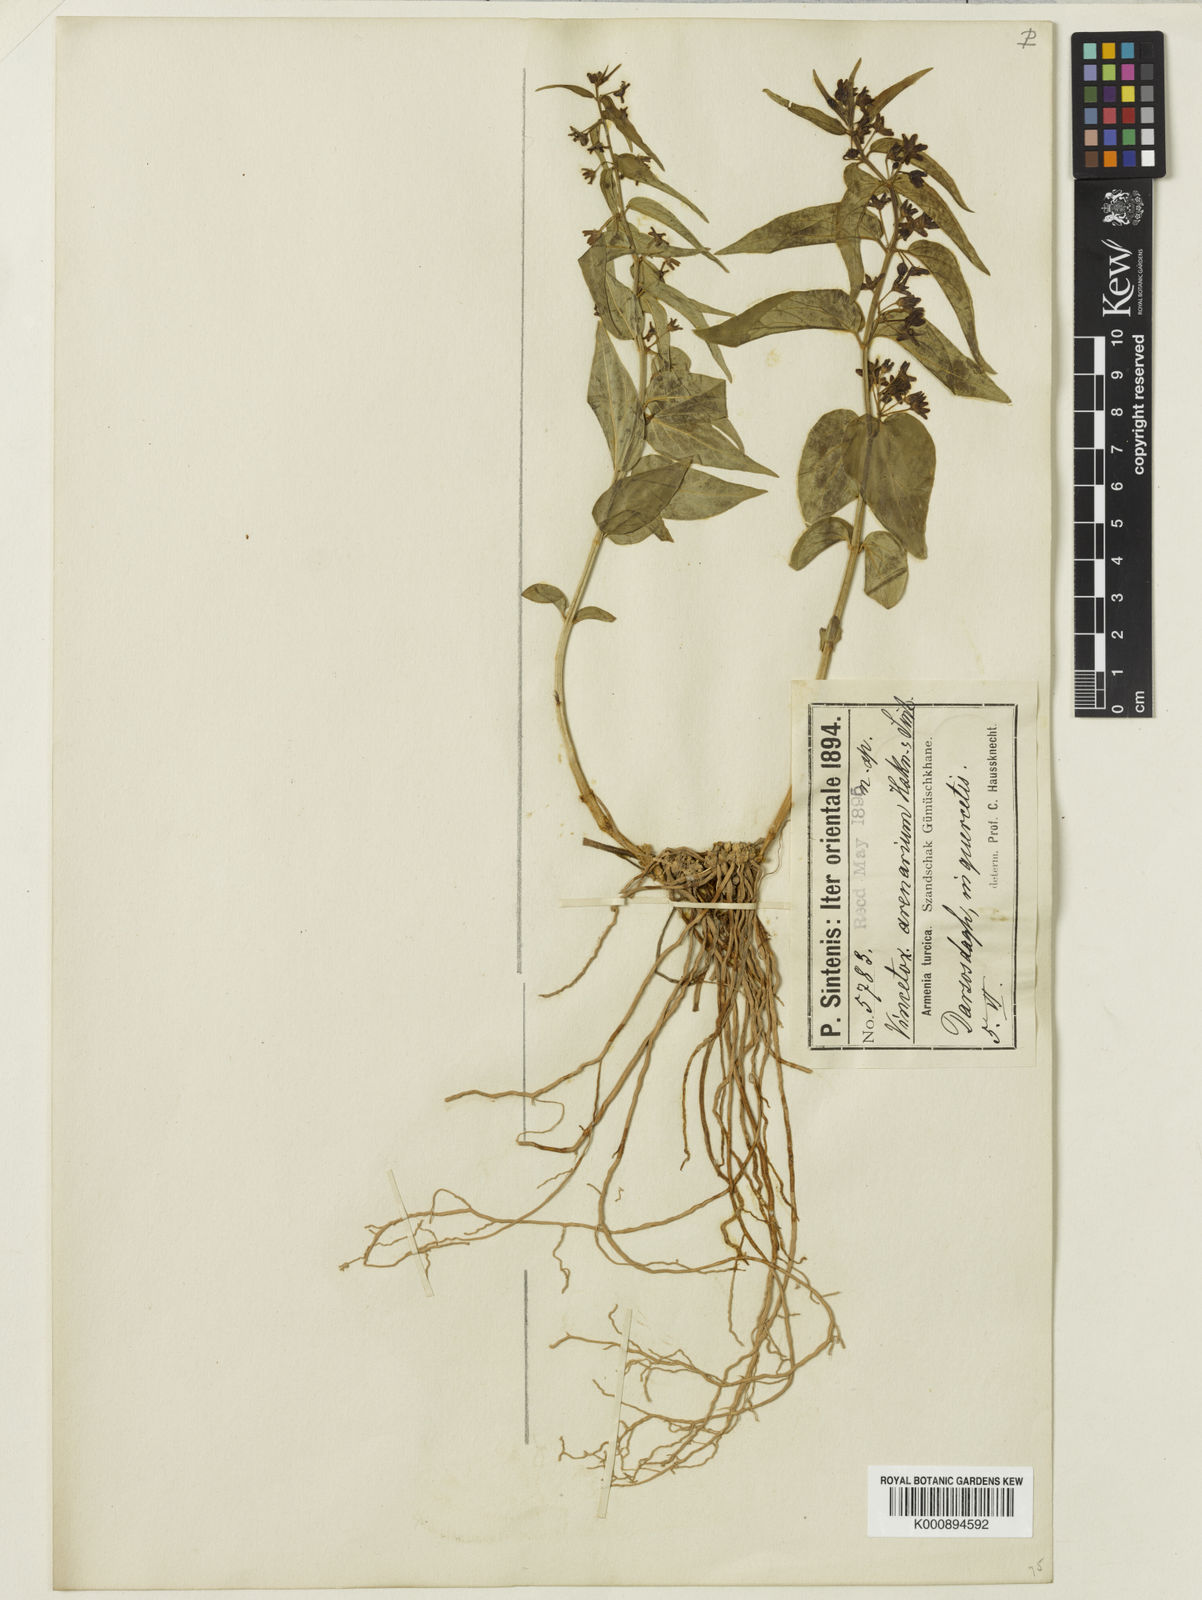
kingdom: Plantae
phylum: Tracheophyta
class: Magnoliopsida
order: Gentianales
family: Apocynaceae
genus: Vincetoxicum
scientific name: Vincetoxicum
